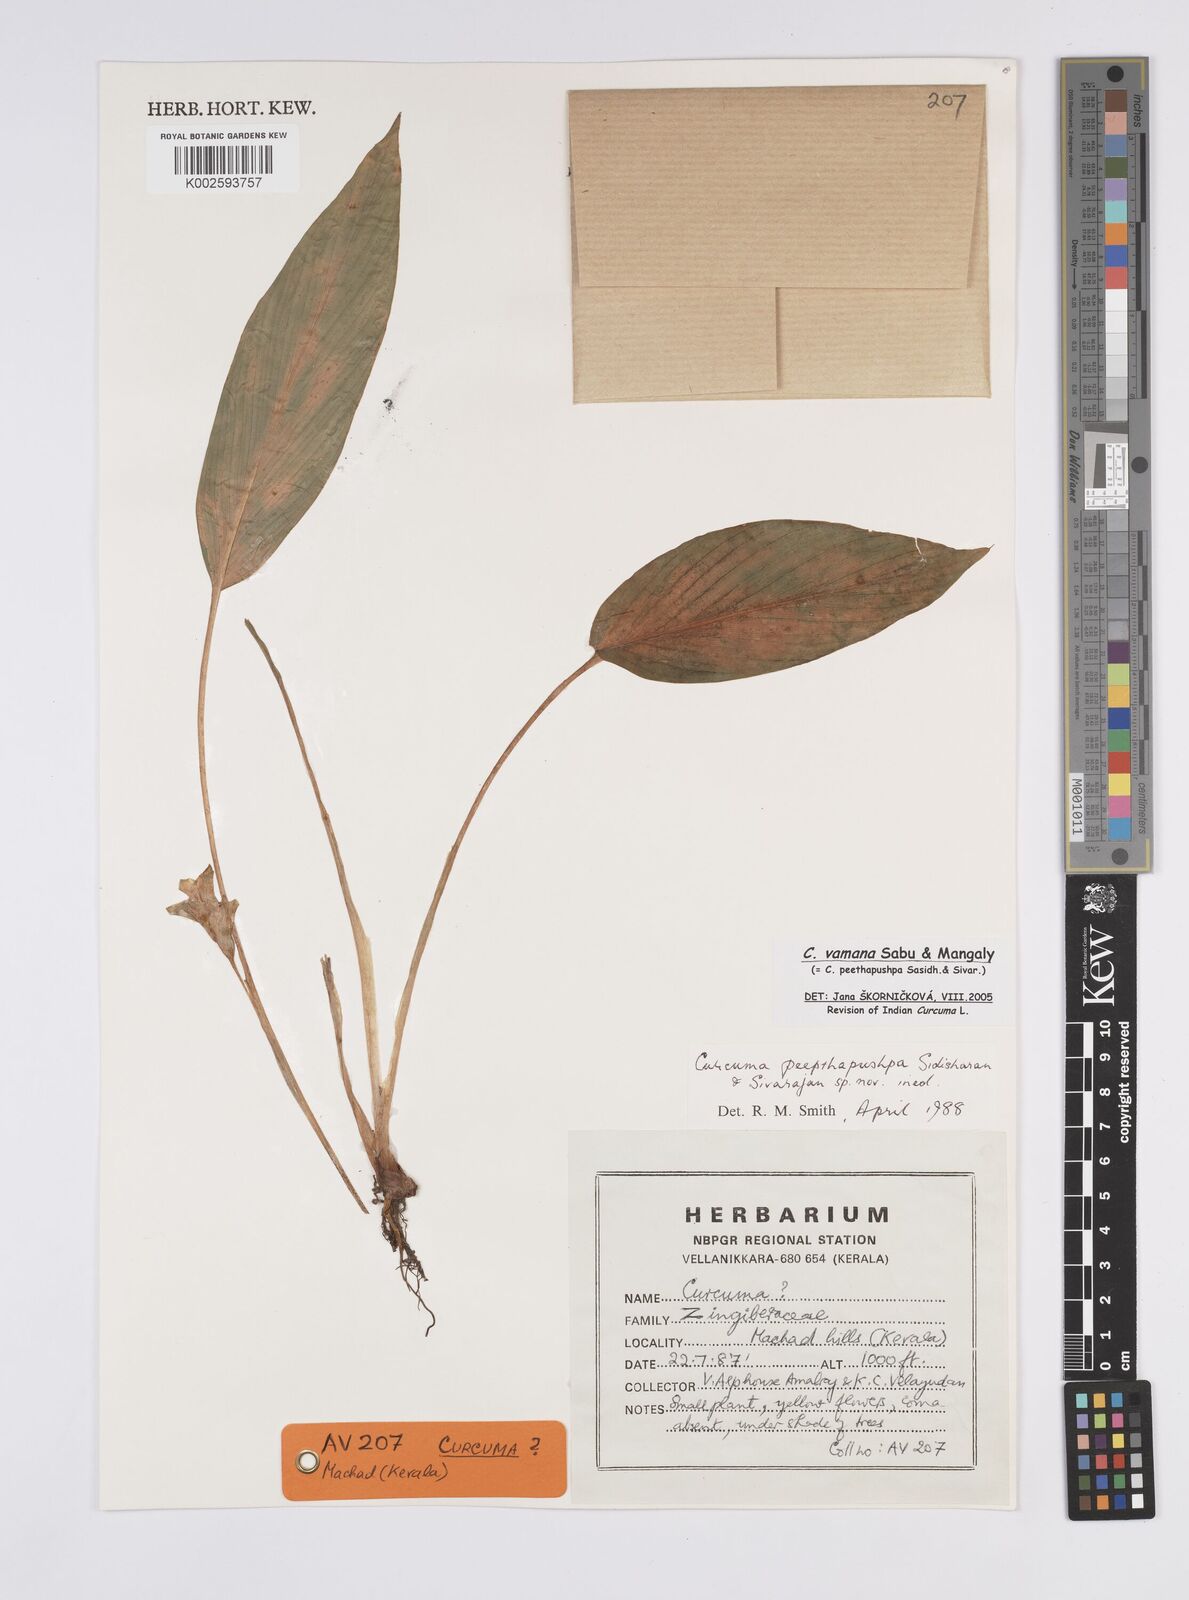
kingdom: Plantae
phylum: Tracheophyta
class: Liliopsida
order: Zingiberales
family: Zingiberaceae
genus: Curcuma
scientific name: Curcuma vamana
